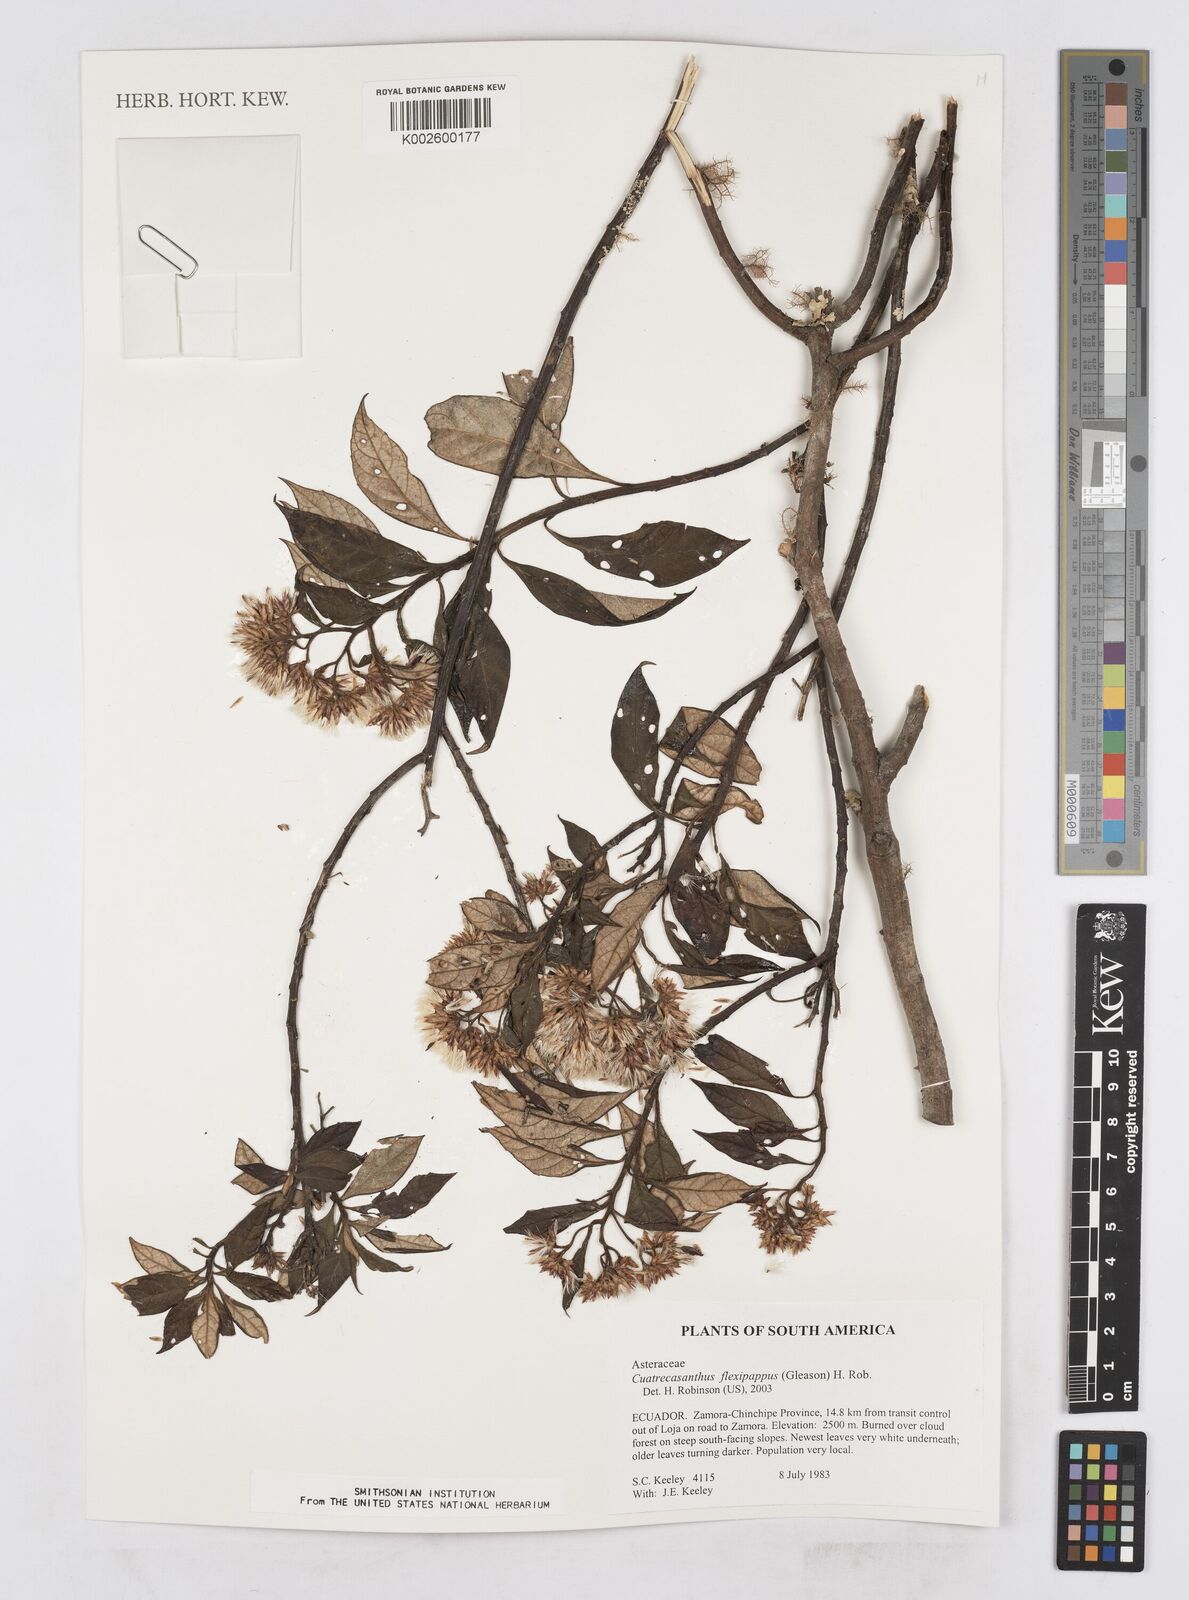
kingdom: Plantae
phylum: Tracheophyta
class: Magnoliopsida
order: Asterales
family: Asteraceae
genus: Cuatrecasanthus
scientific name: Cuatrecasanthus flexipappus
